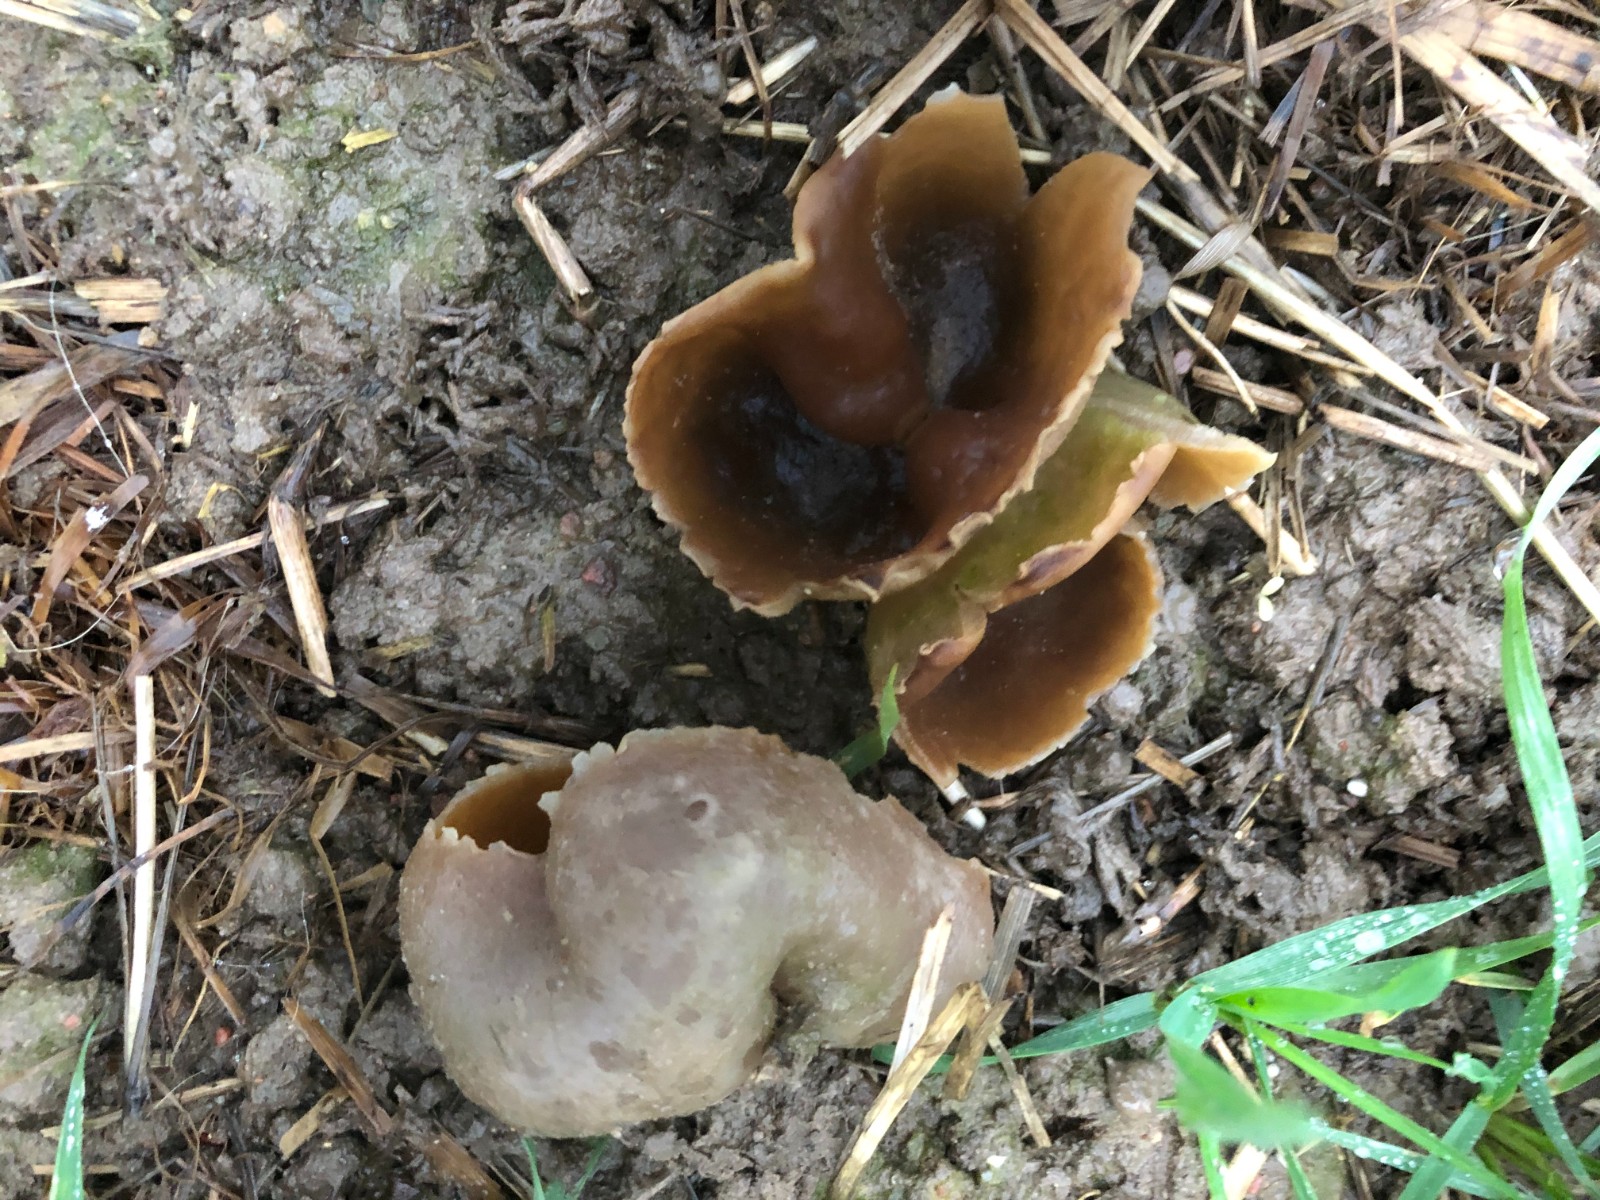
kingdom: Fungi
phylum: Ascomycota
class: Pezizomycetes
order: Pezizales
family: Pezizaceae
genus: Peziza
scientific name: Peziza vesiculosa
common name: blære-bægersvamp
